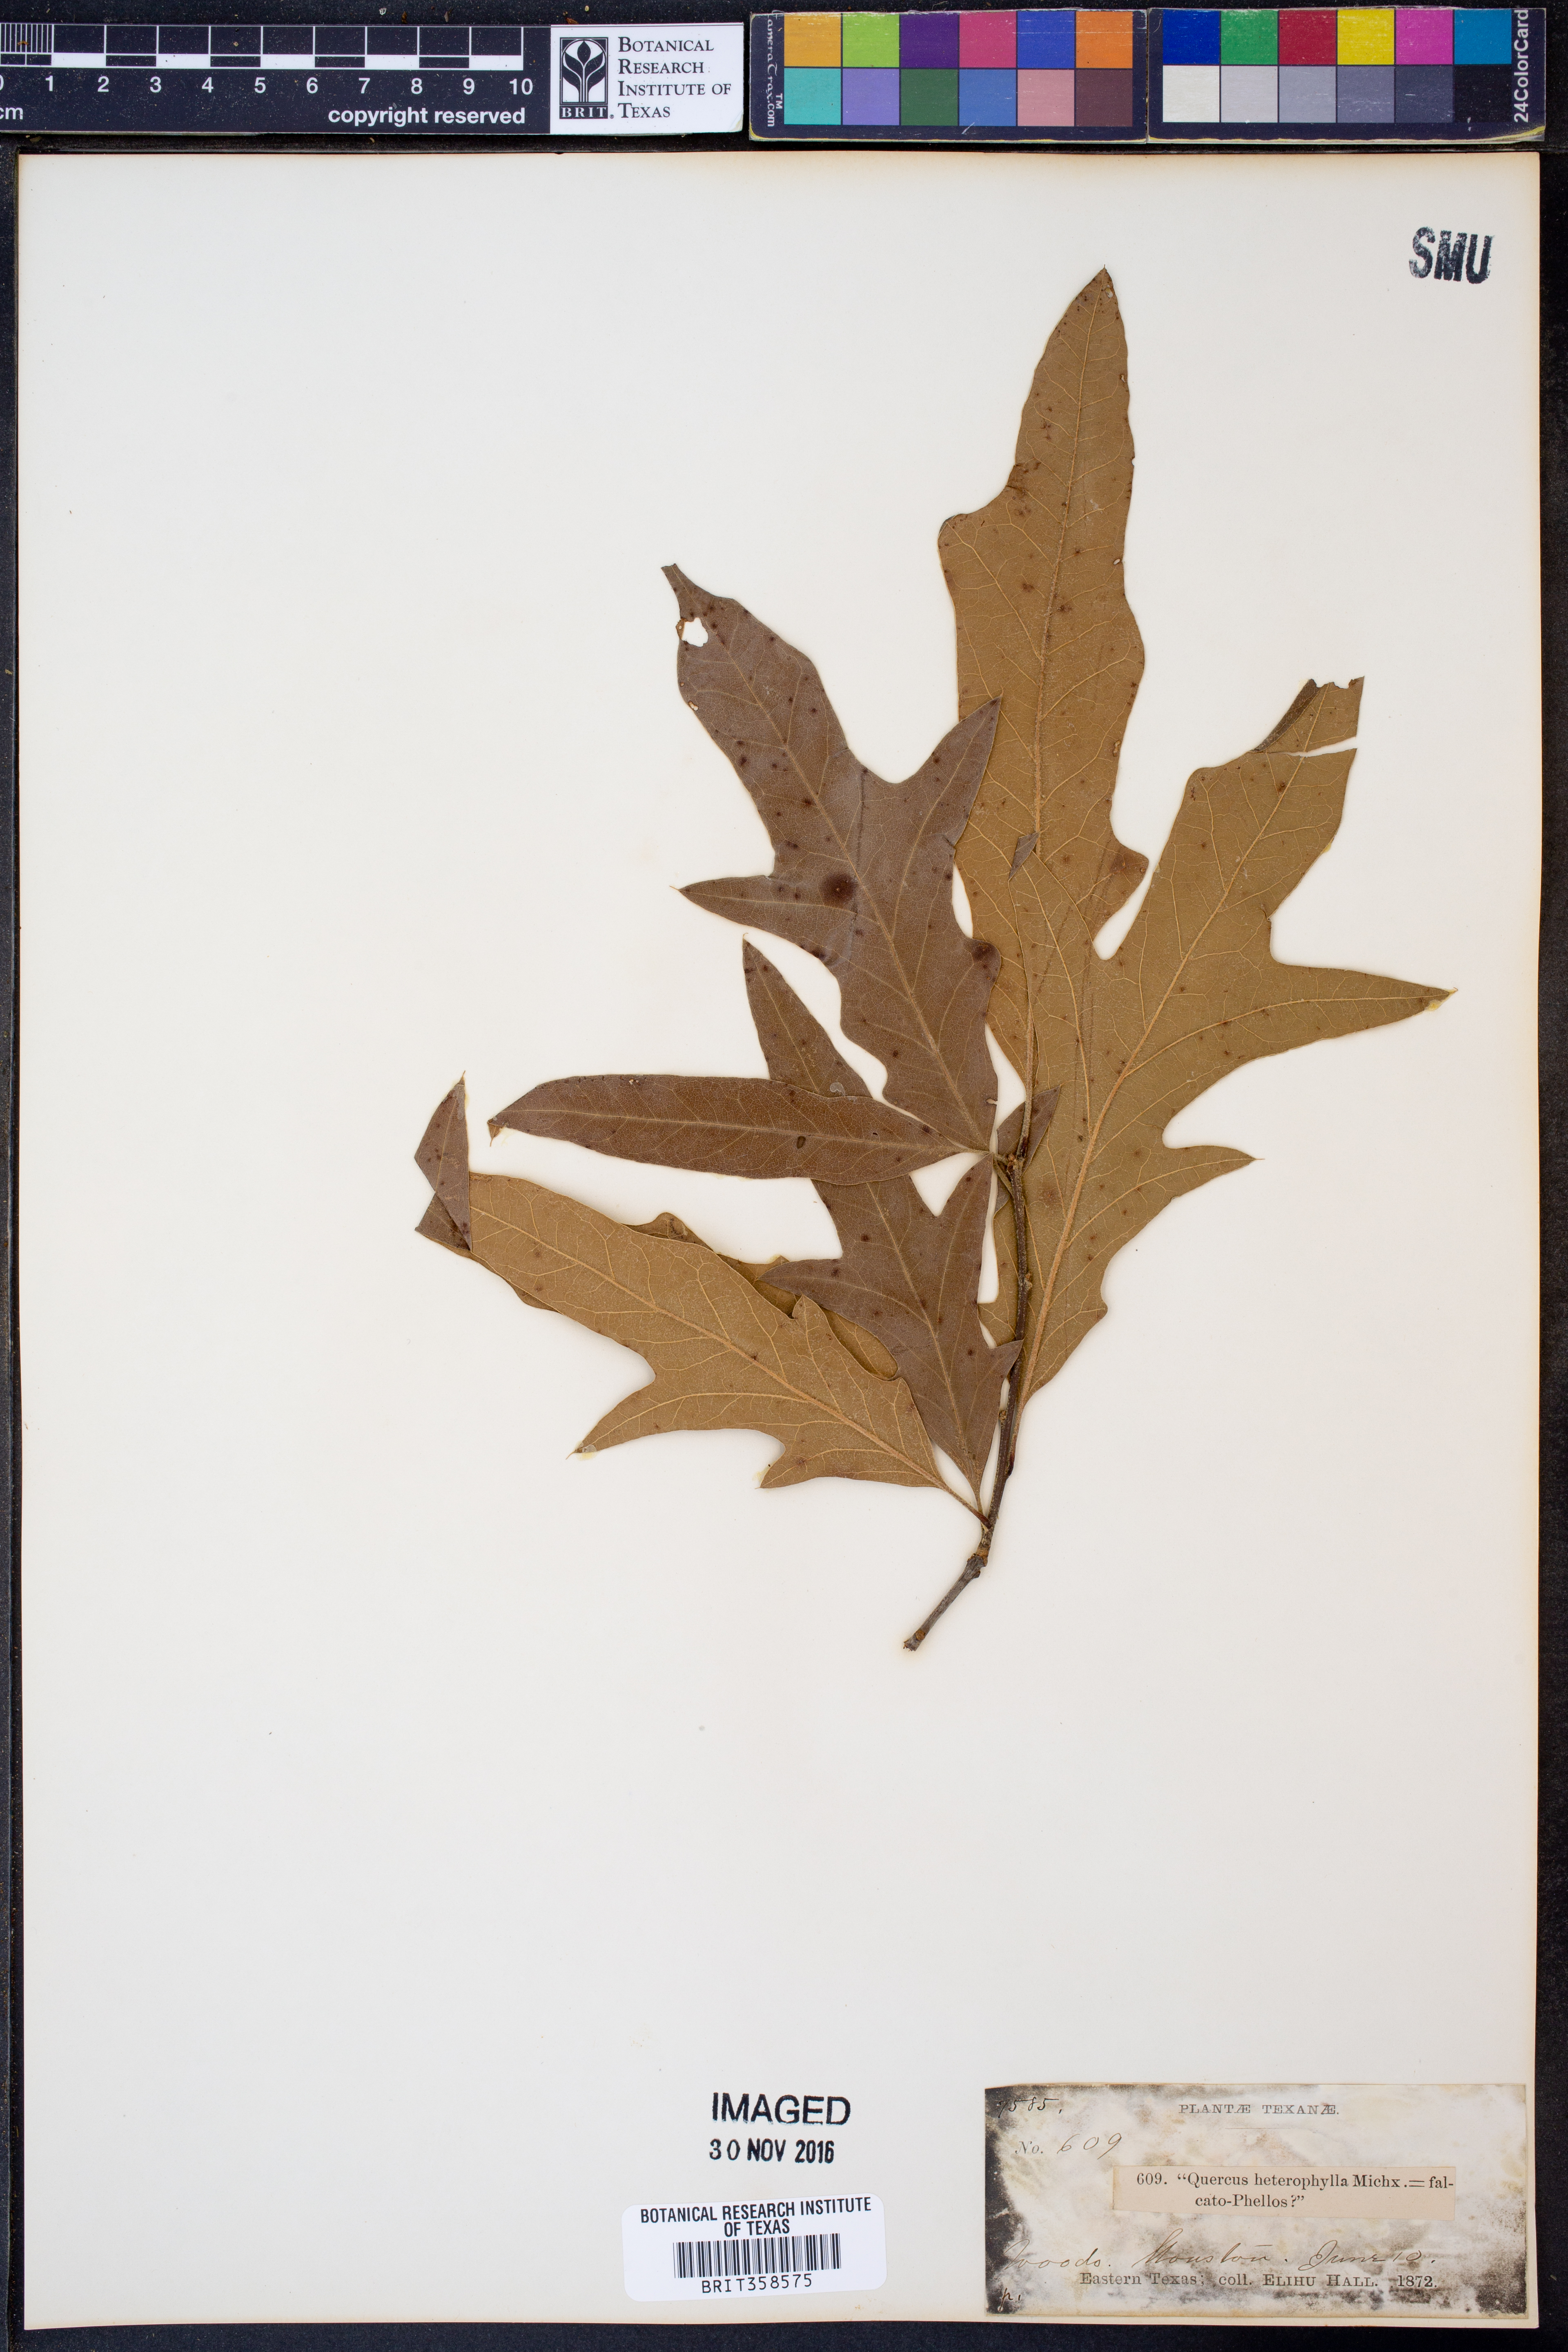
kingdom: Plantae
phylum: Tracheophyta
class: Magnoliopsida
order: Fagales
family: Fagaceae
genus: Quercus
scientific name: Quercus falcata
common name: Southern red oak
